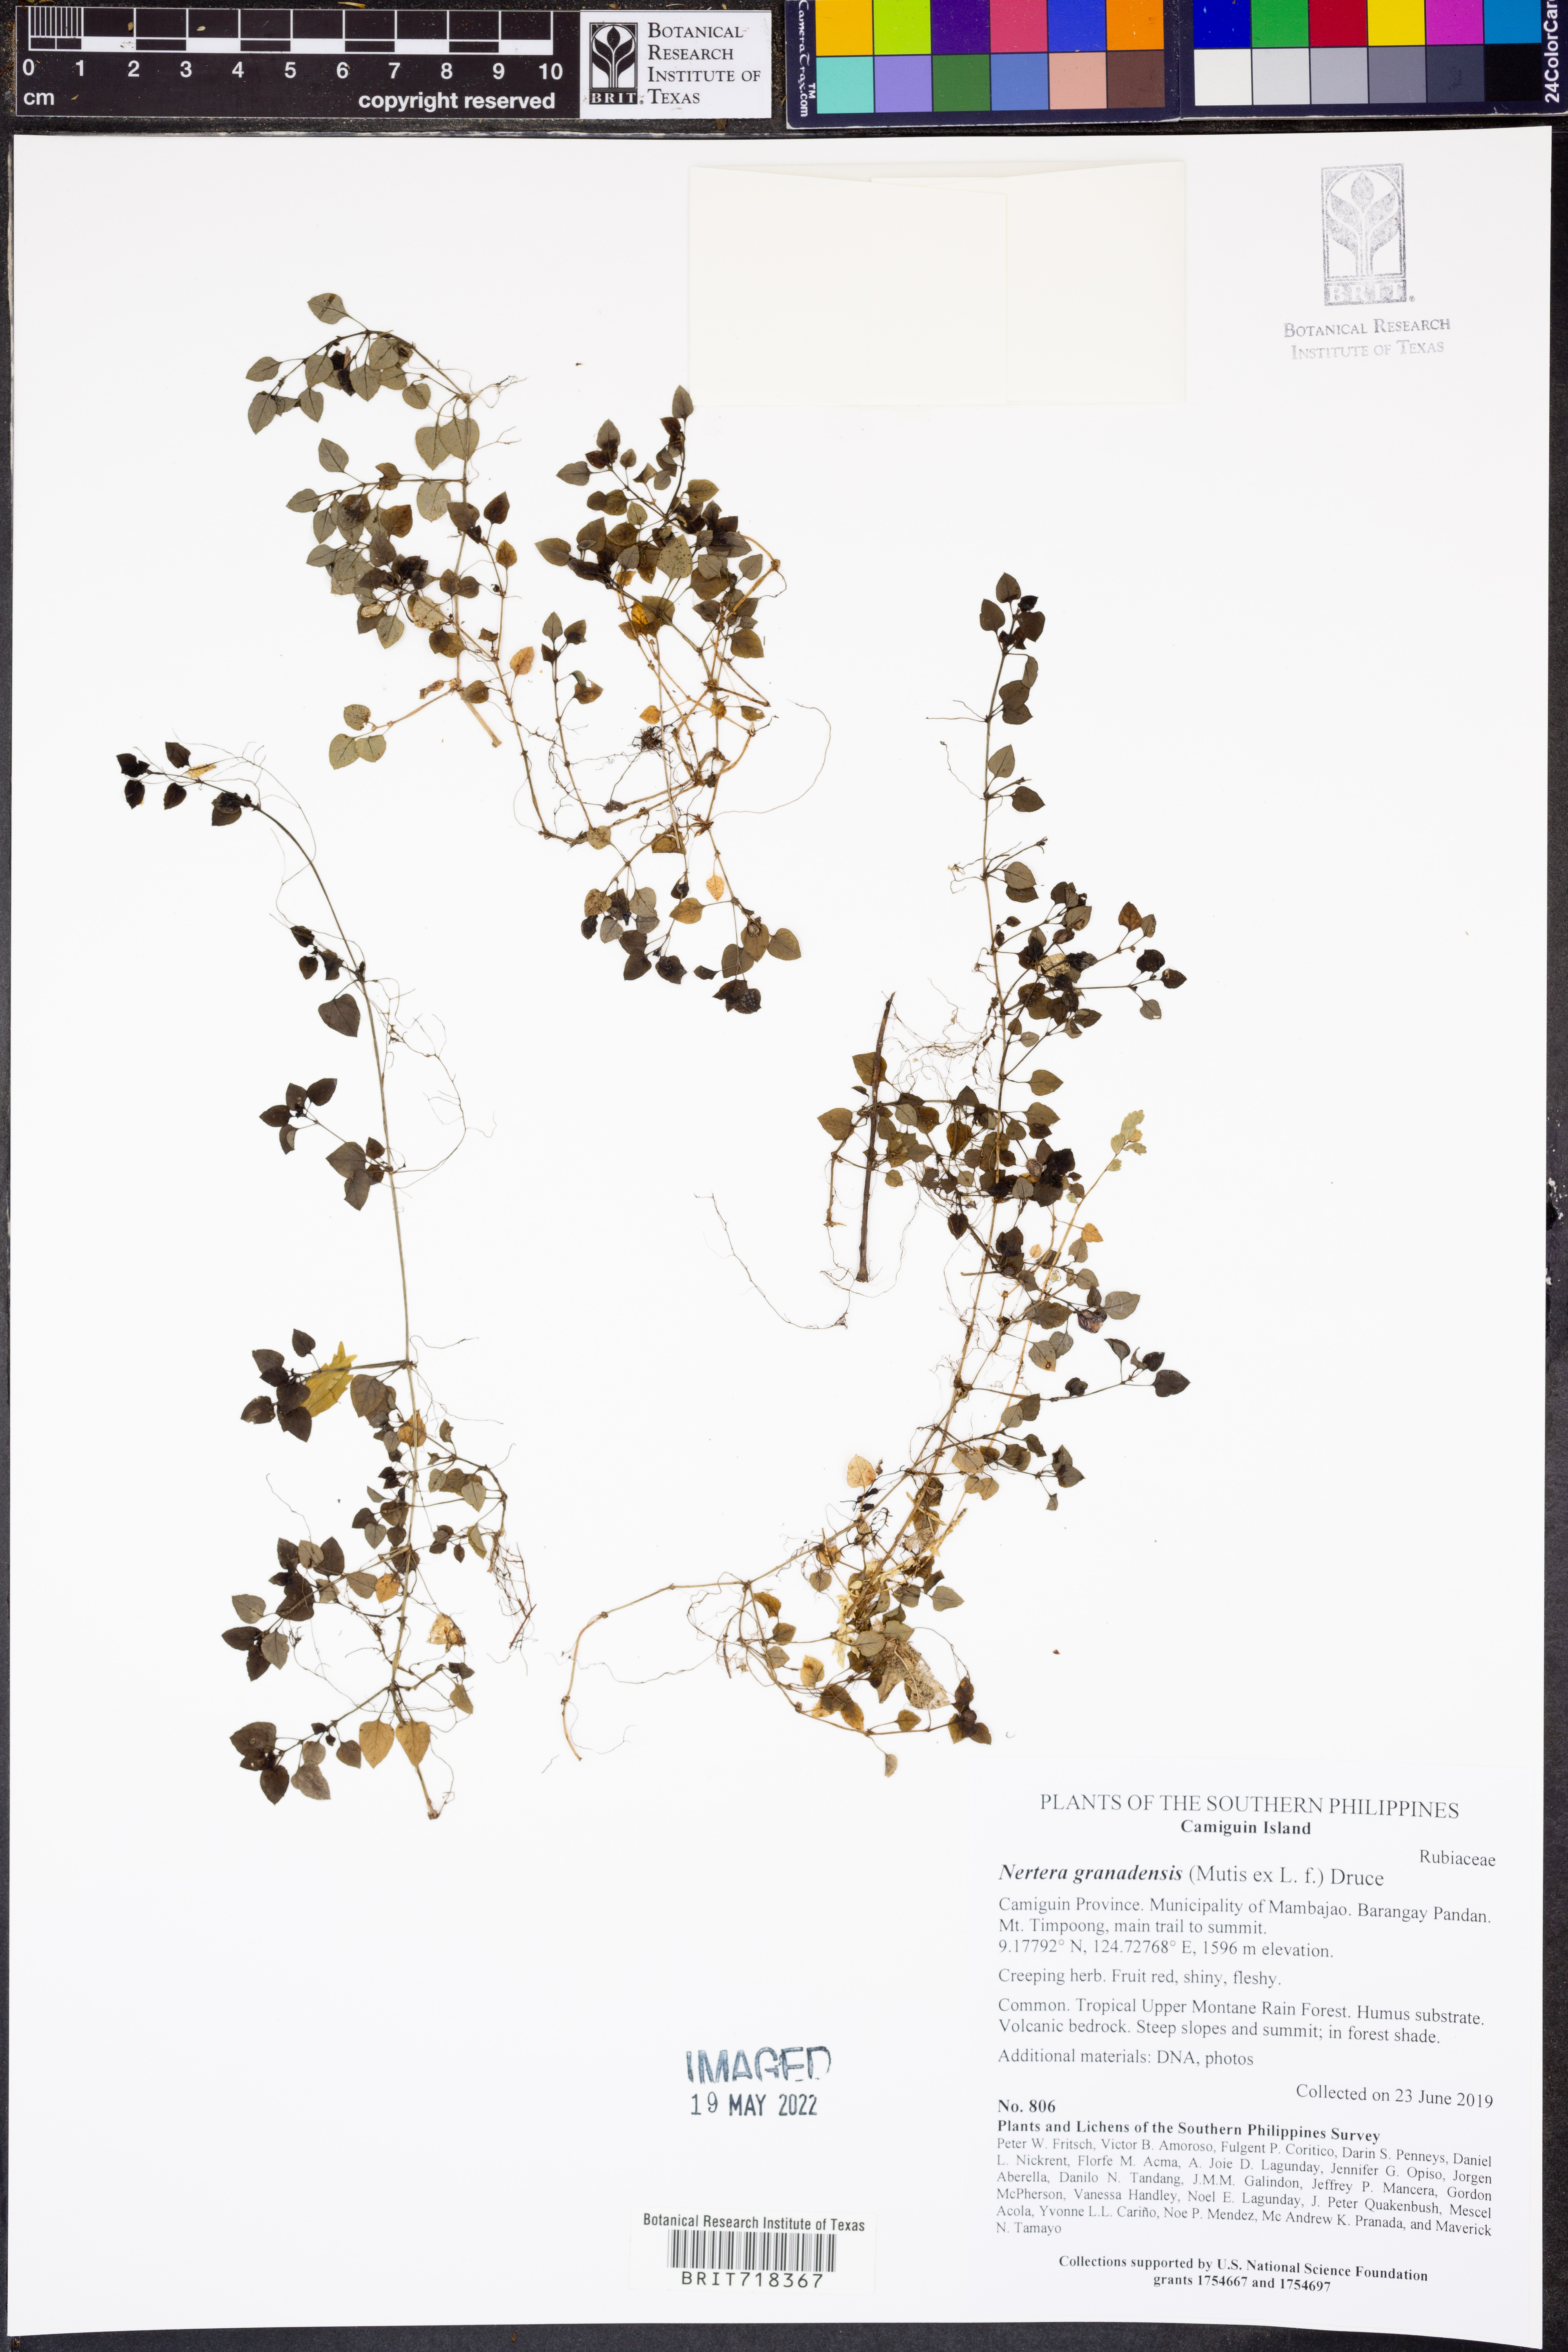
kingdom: Plantae
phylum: Tracheophyta
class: Magnoliopsida
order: Gentianales
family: Rubiaceae
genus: Nertera
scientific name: Nertera granadensis
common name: Beadplant
